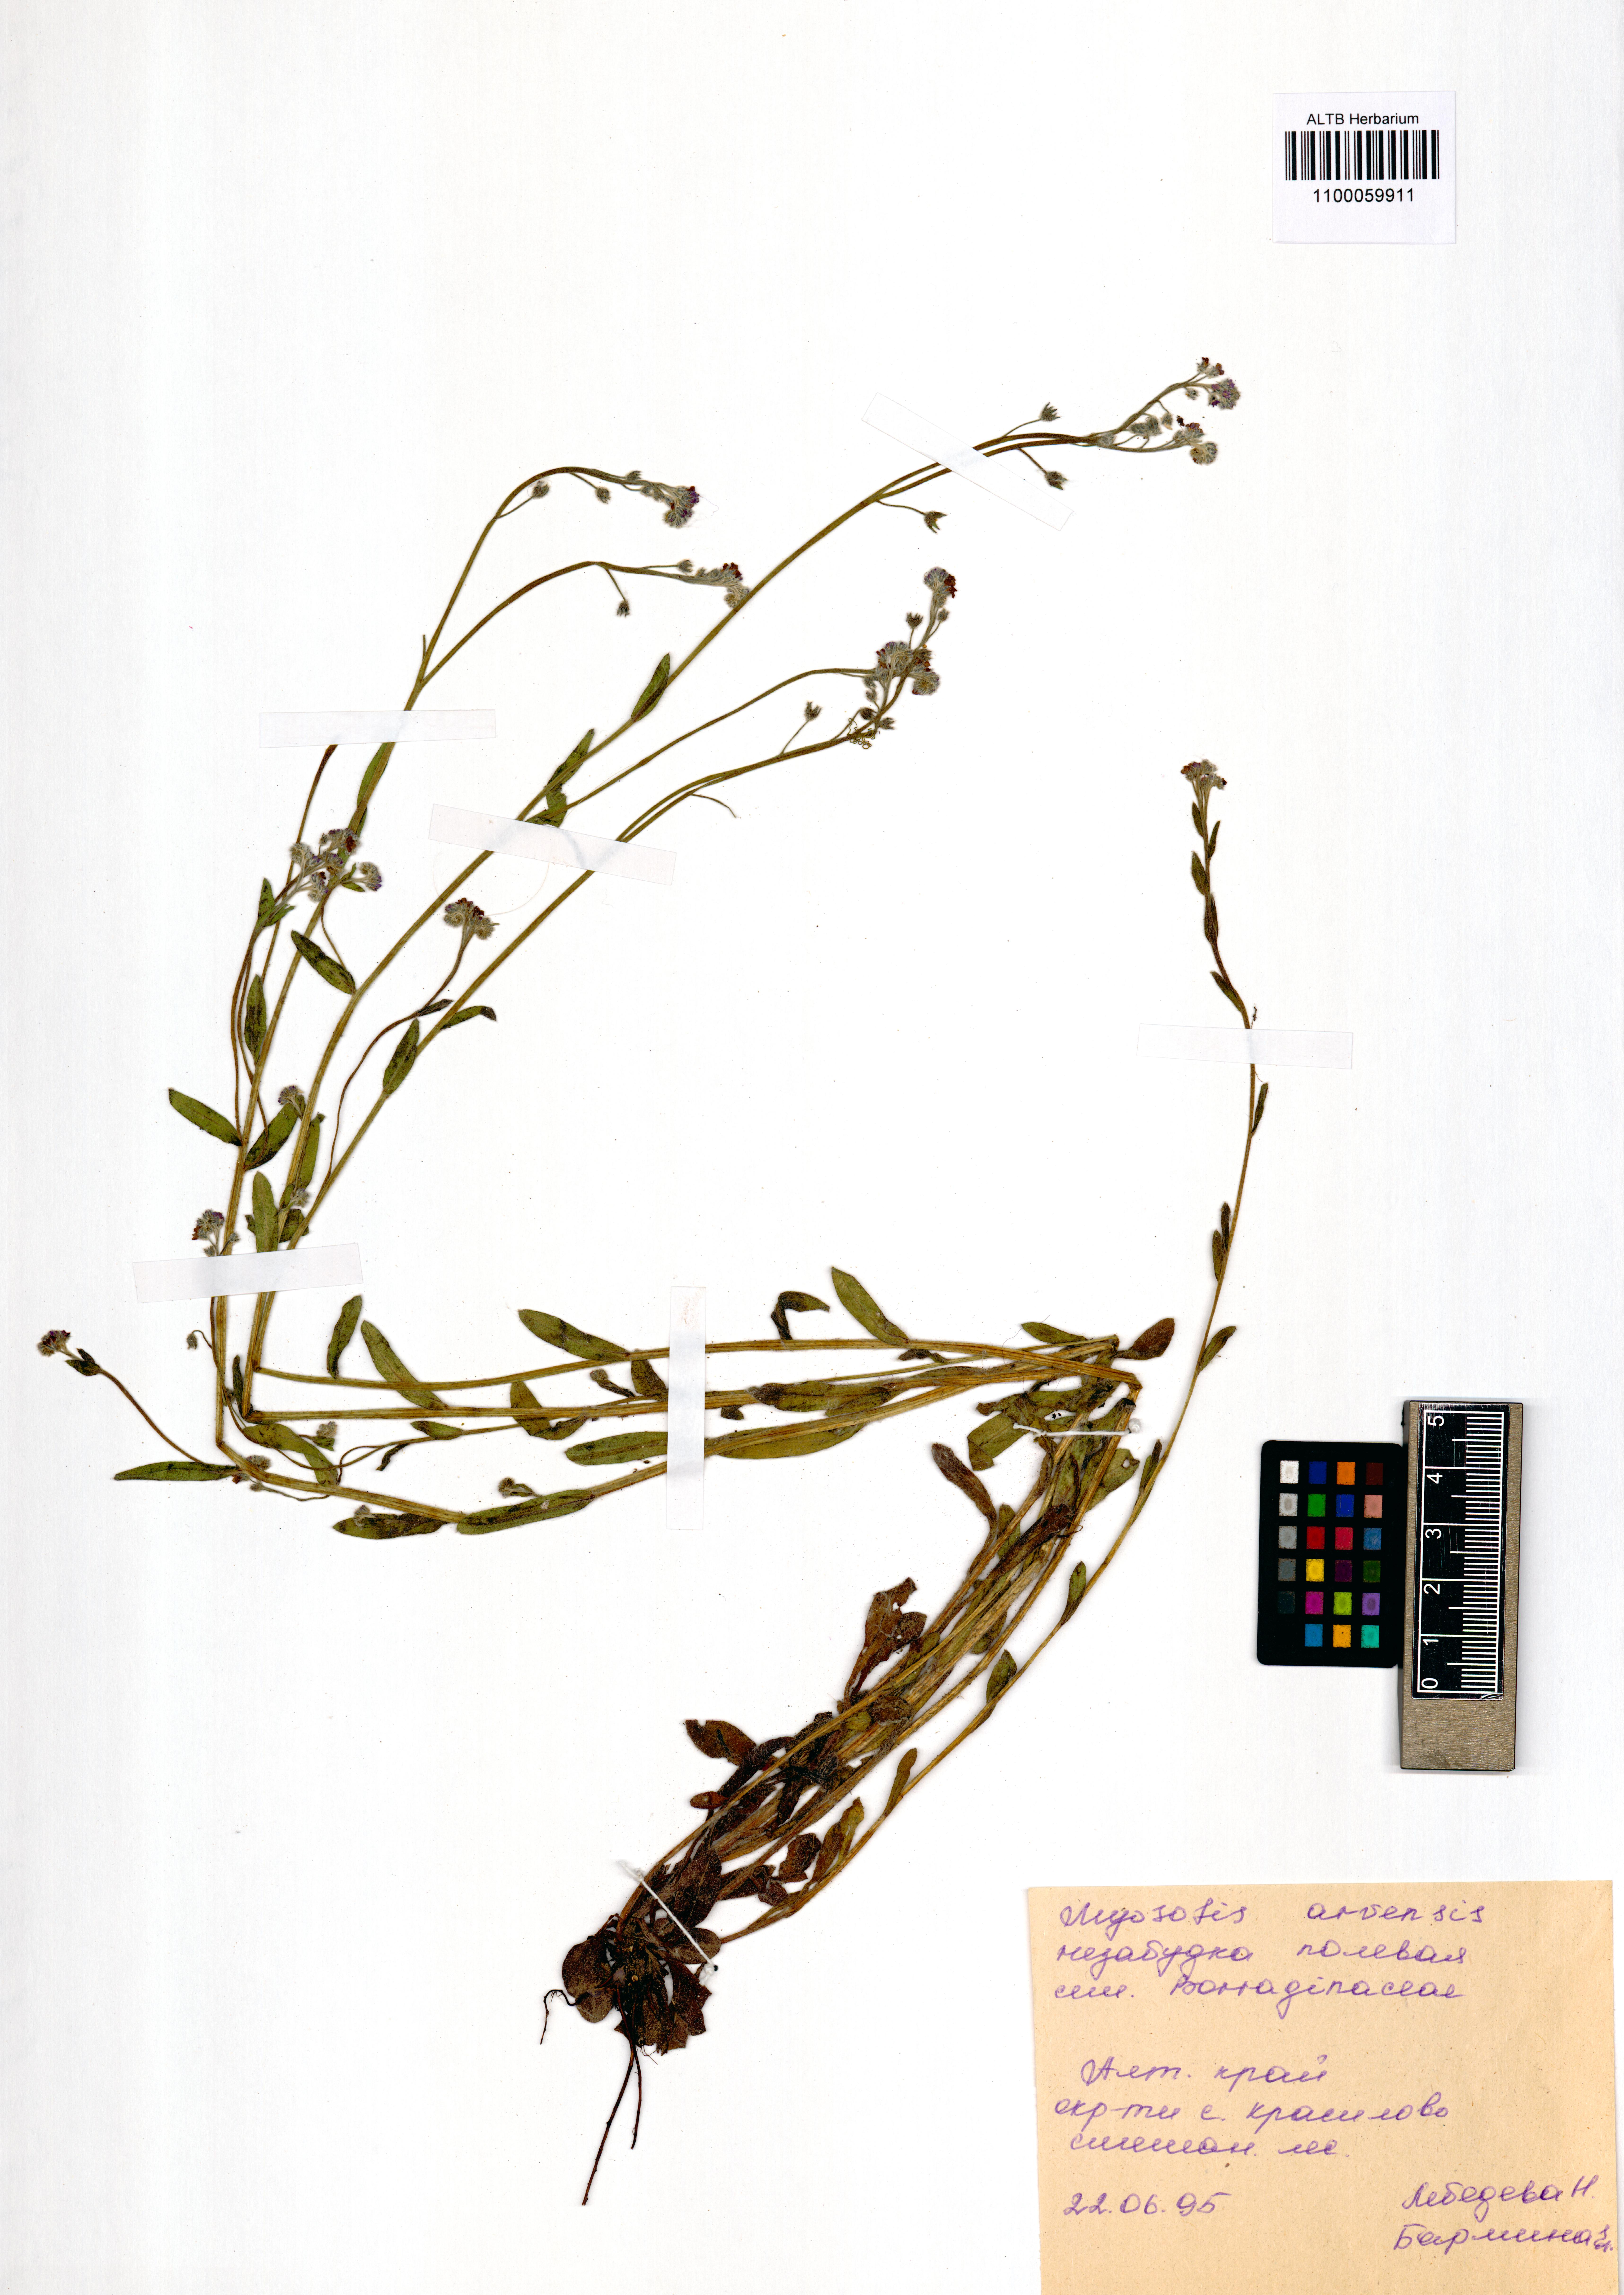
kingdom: Plantae
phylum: Tracheophyta
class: Magnoliopsida
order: Boraginales
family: Boraginaceae
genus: Myosotis
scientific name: Myosotis arvensis
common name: Field forget-me-not
